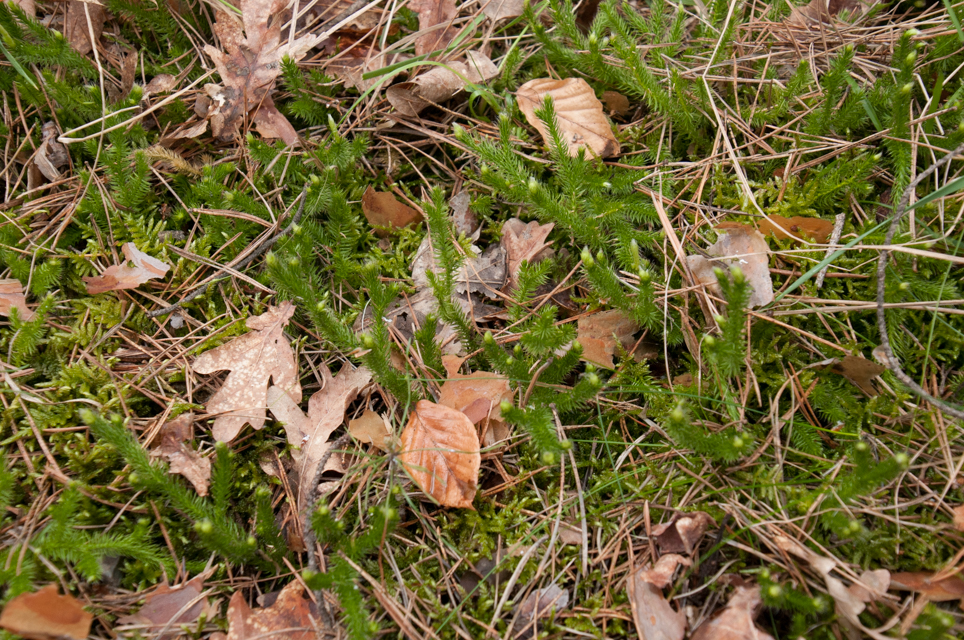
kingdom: Plantae
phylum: Tracheophyta
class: Lycopodiopsida
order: Lycopodiales
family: Lycopodiaceae
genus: Spinulum
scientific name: Spinulum annotinum
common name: Interrupted club-moss
